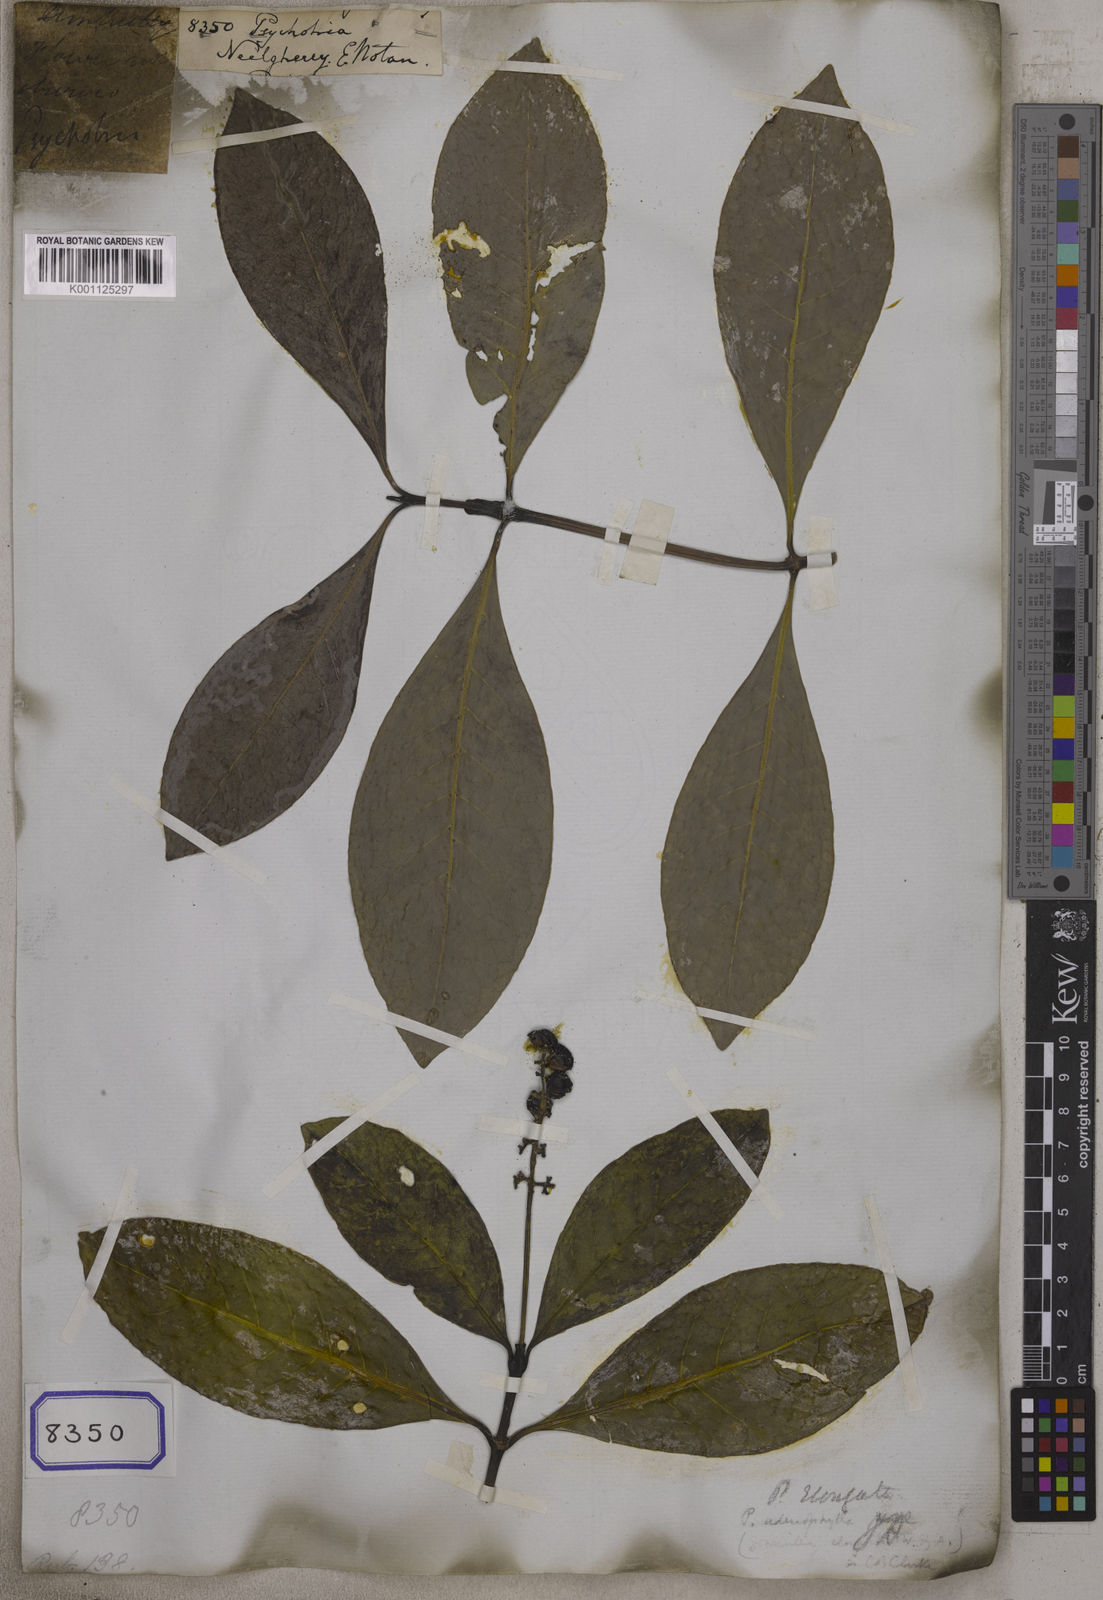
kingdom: Plantae
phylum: Tracheophyta
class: Magnoliopsida
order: Gentianales
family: Rubiaceae
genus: Psychotria
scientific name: Psychotria
